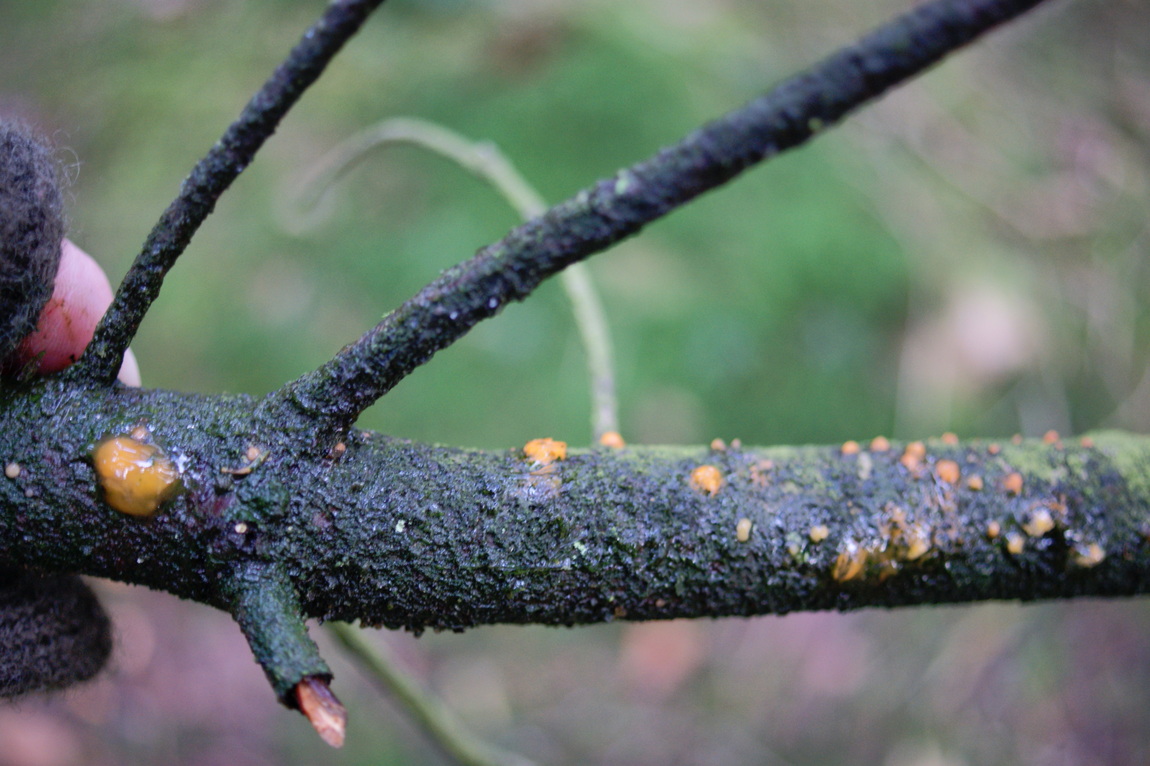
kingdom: Fungi
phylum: Basidiomycota
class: Dacrymycetes
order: Dacrymycetales
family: Dacrymycetaceae
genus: Dacrymyces
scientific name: Dacrymyces stillatus
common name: almindelig tåresvamp
